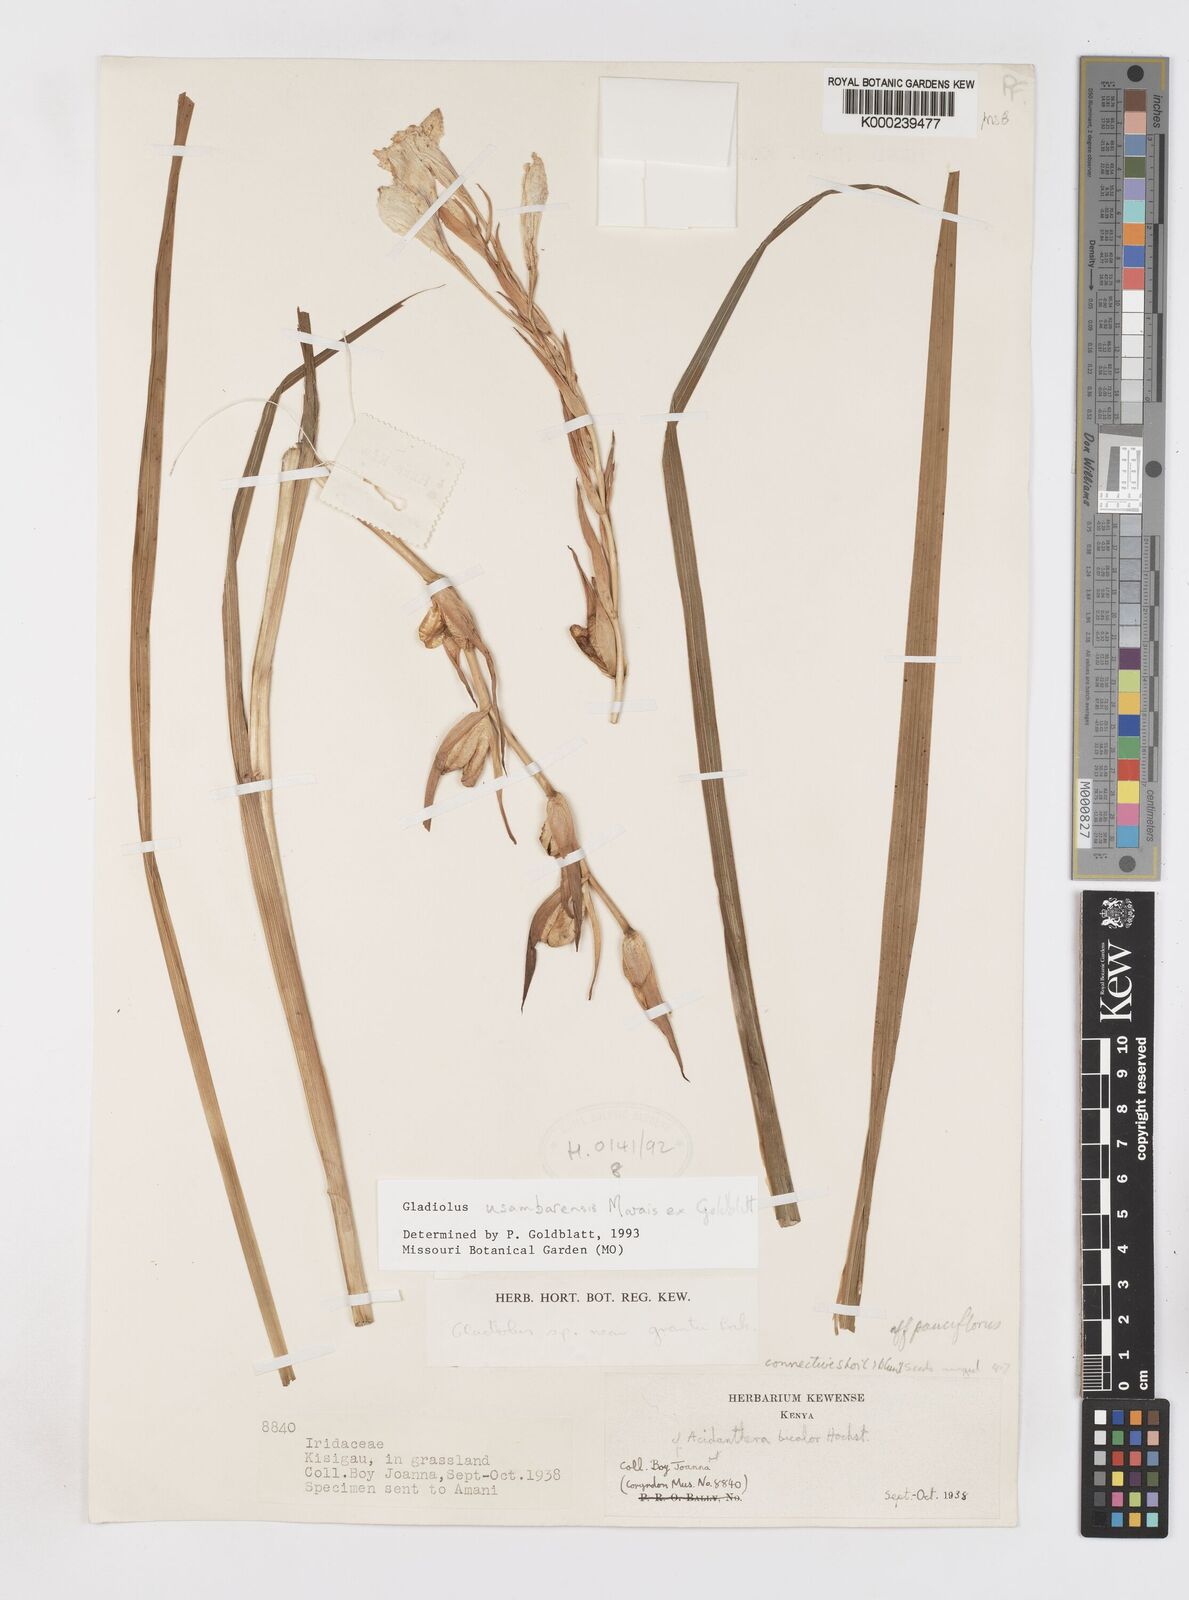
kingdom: Plantae
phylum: Tracheophyta
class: Liliopsida
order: Asparagales
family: Iridaceae
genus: Gladiolus
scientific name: Gladiolus usambarensis
